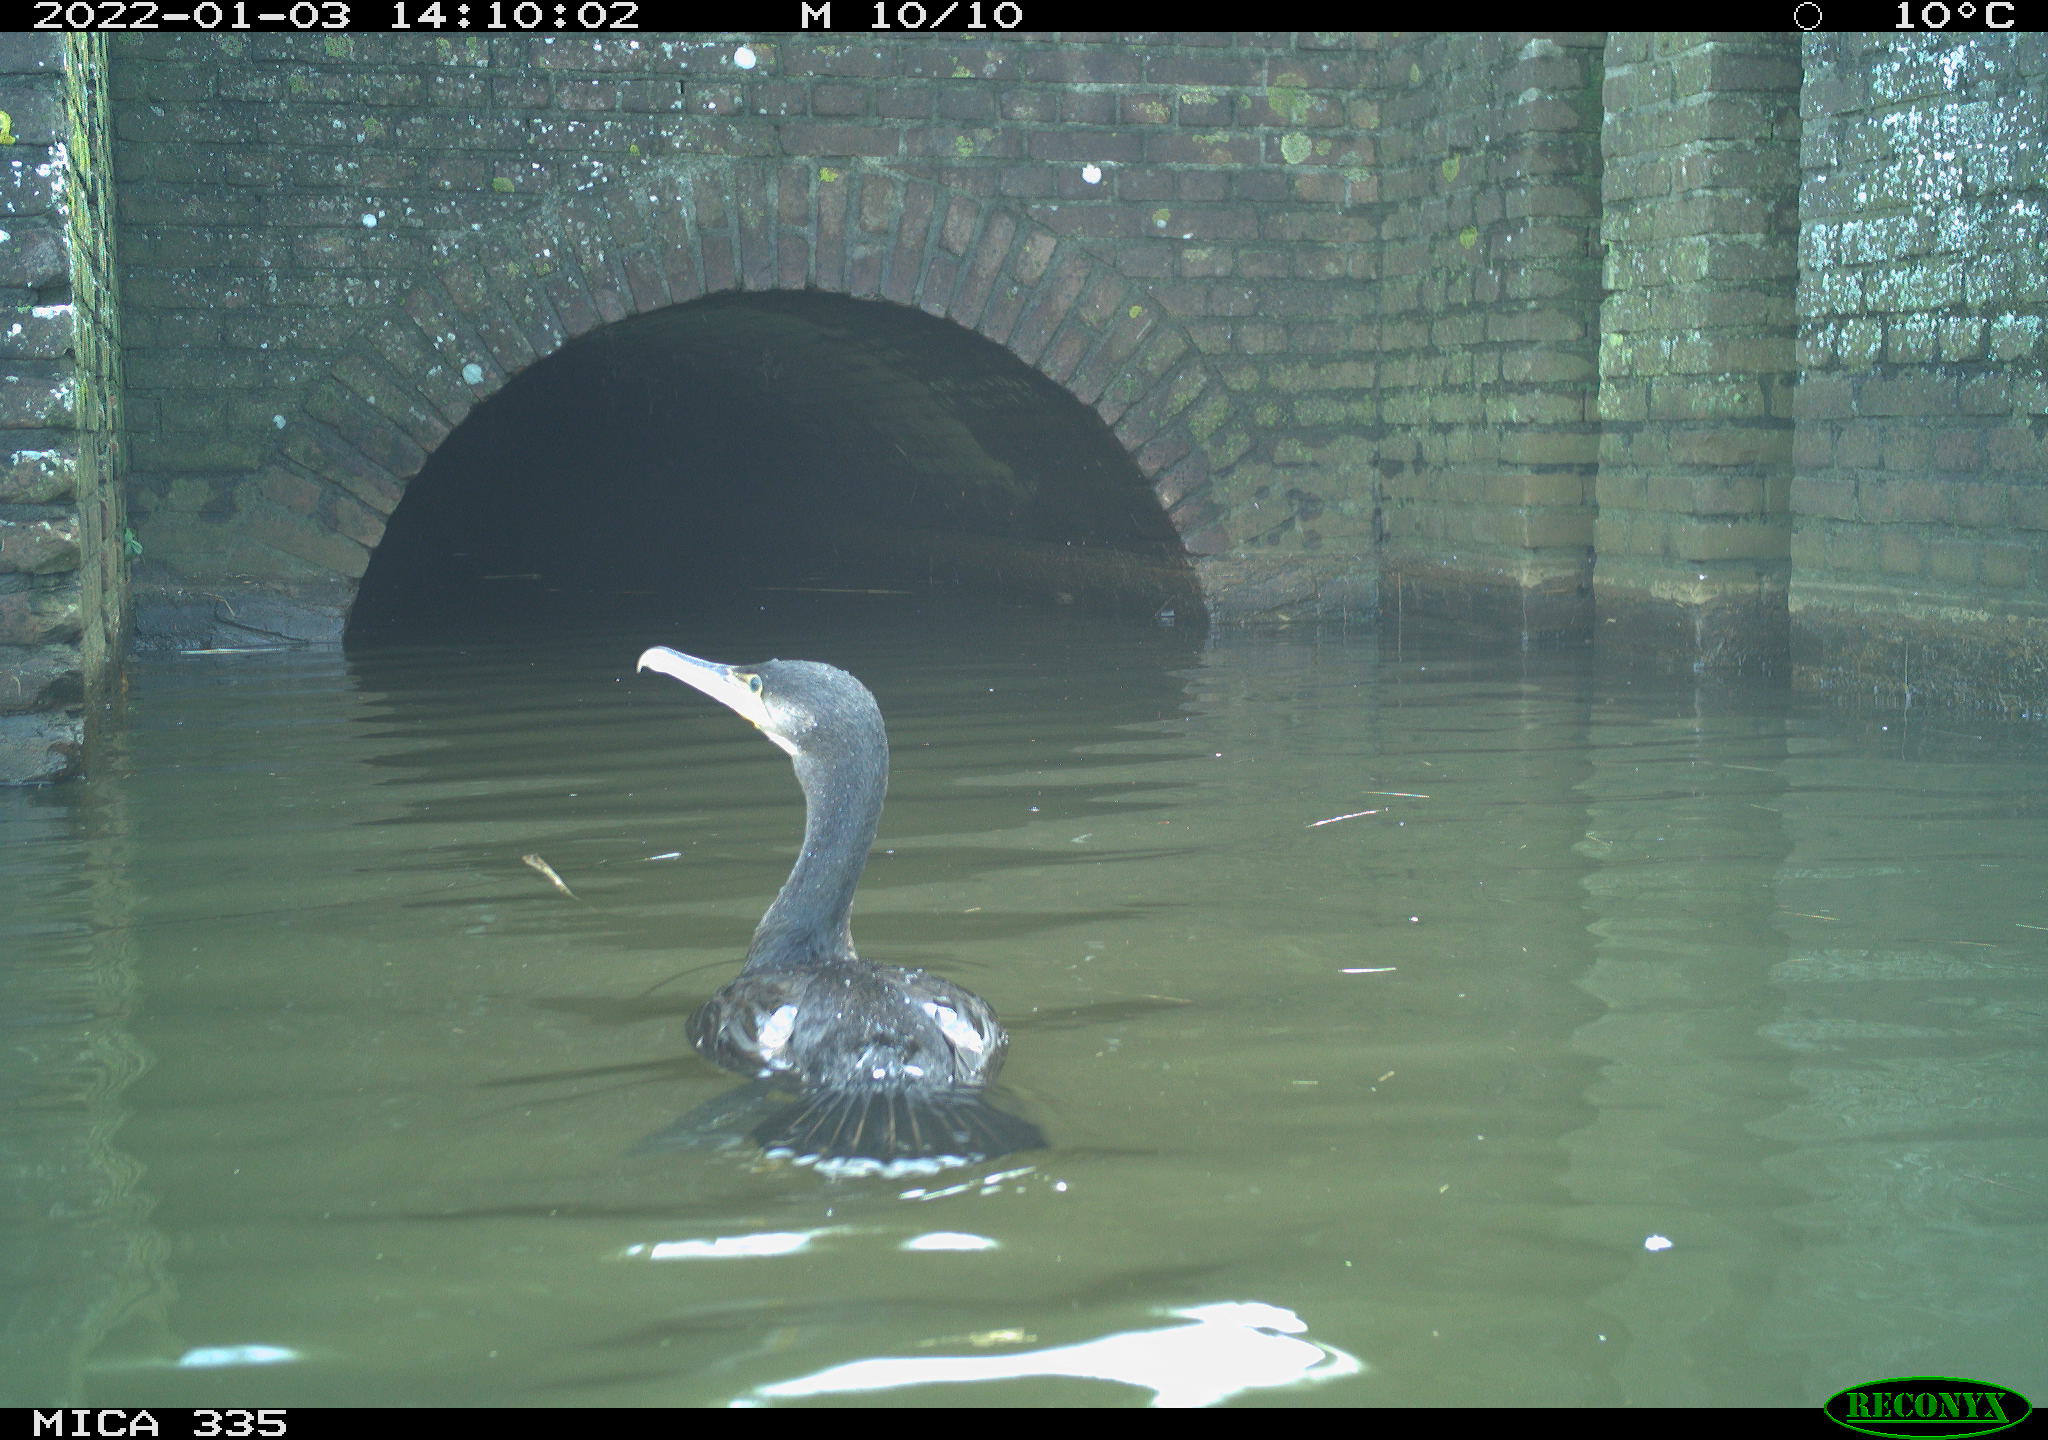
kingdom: Animalia
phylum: Chordata
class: Aves
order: Suliformes
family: Phalacrocoracidae
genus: Phalacrocorax
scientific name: Phalacrocorax carbo
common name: Great cormorant
